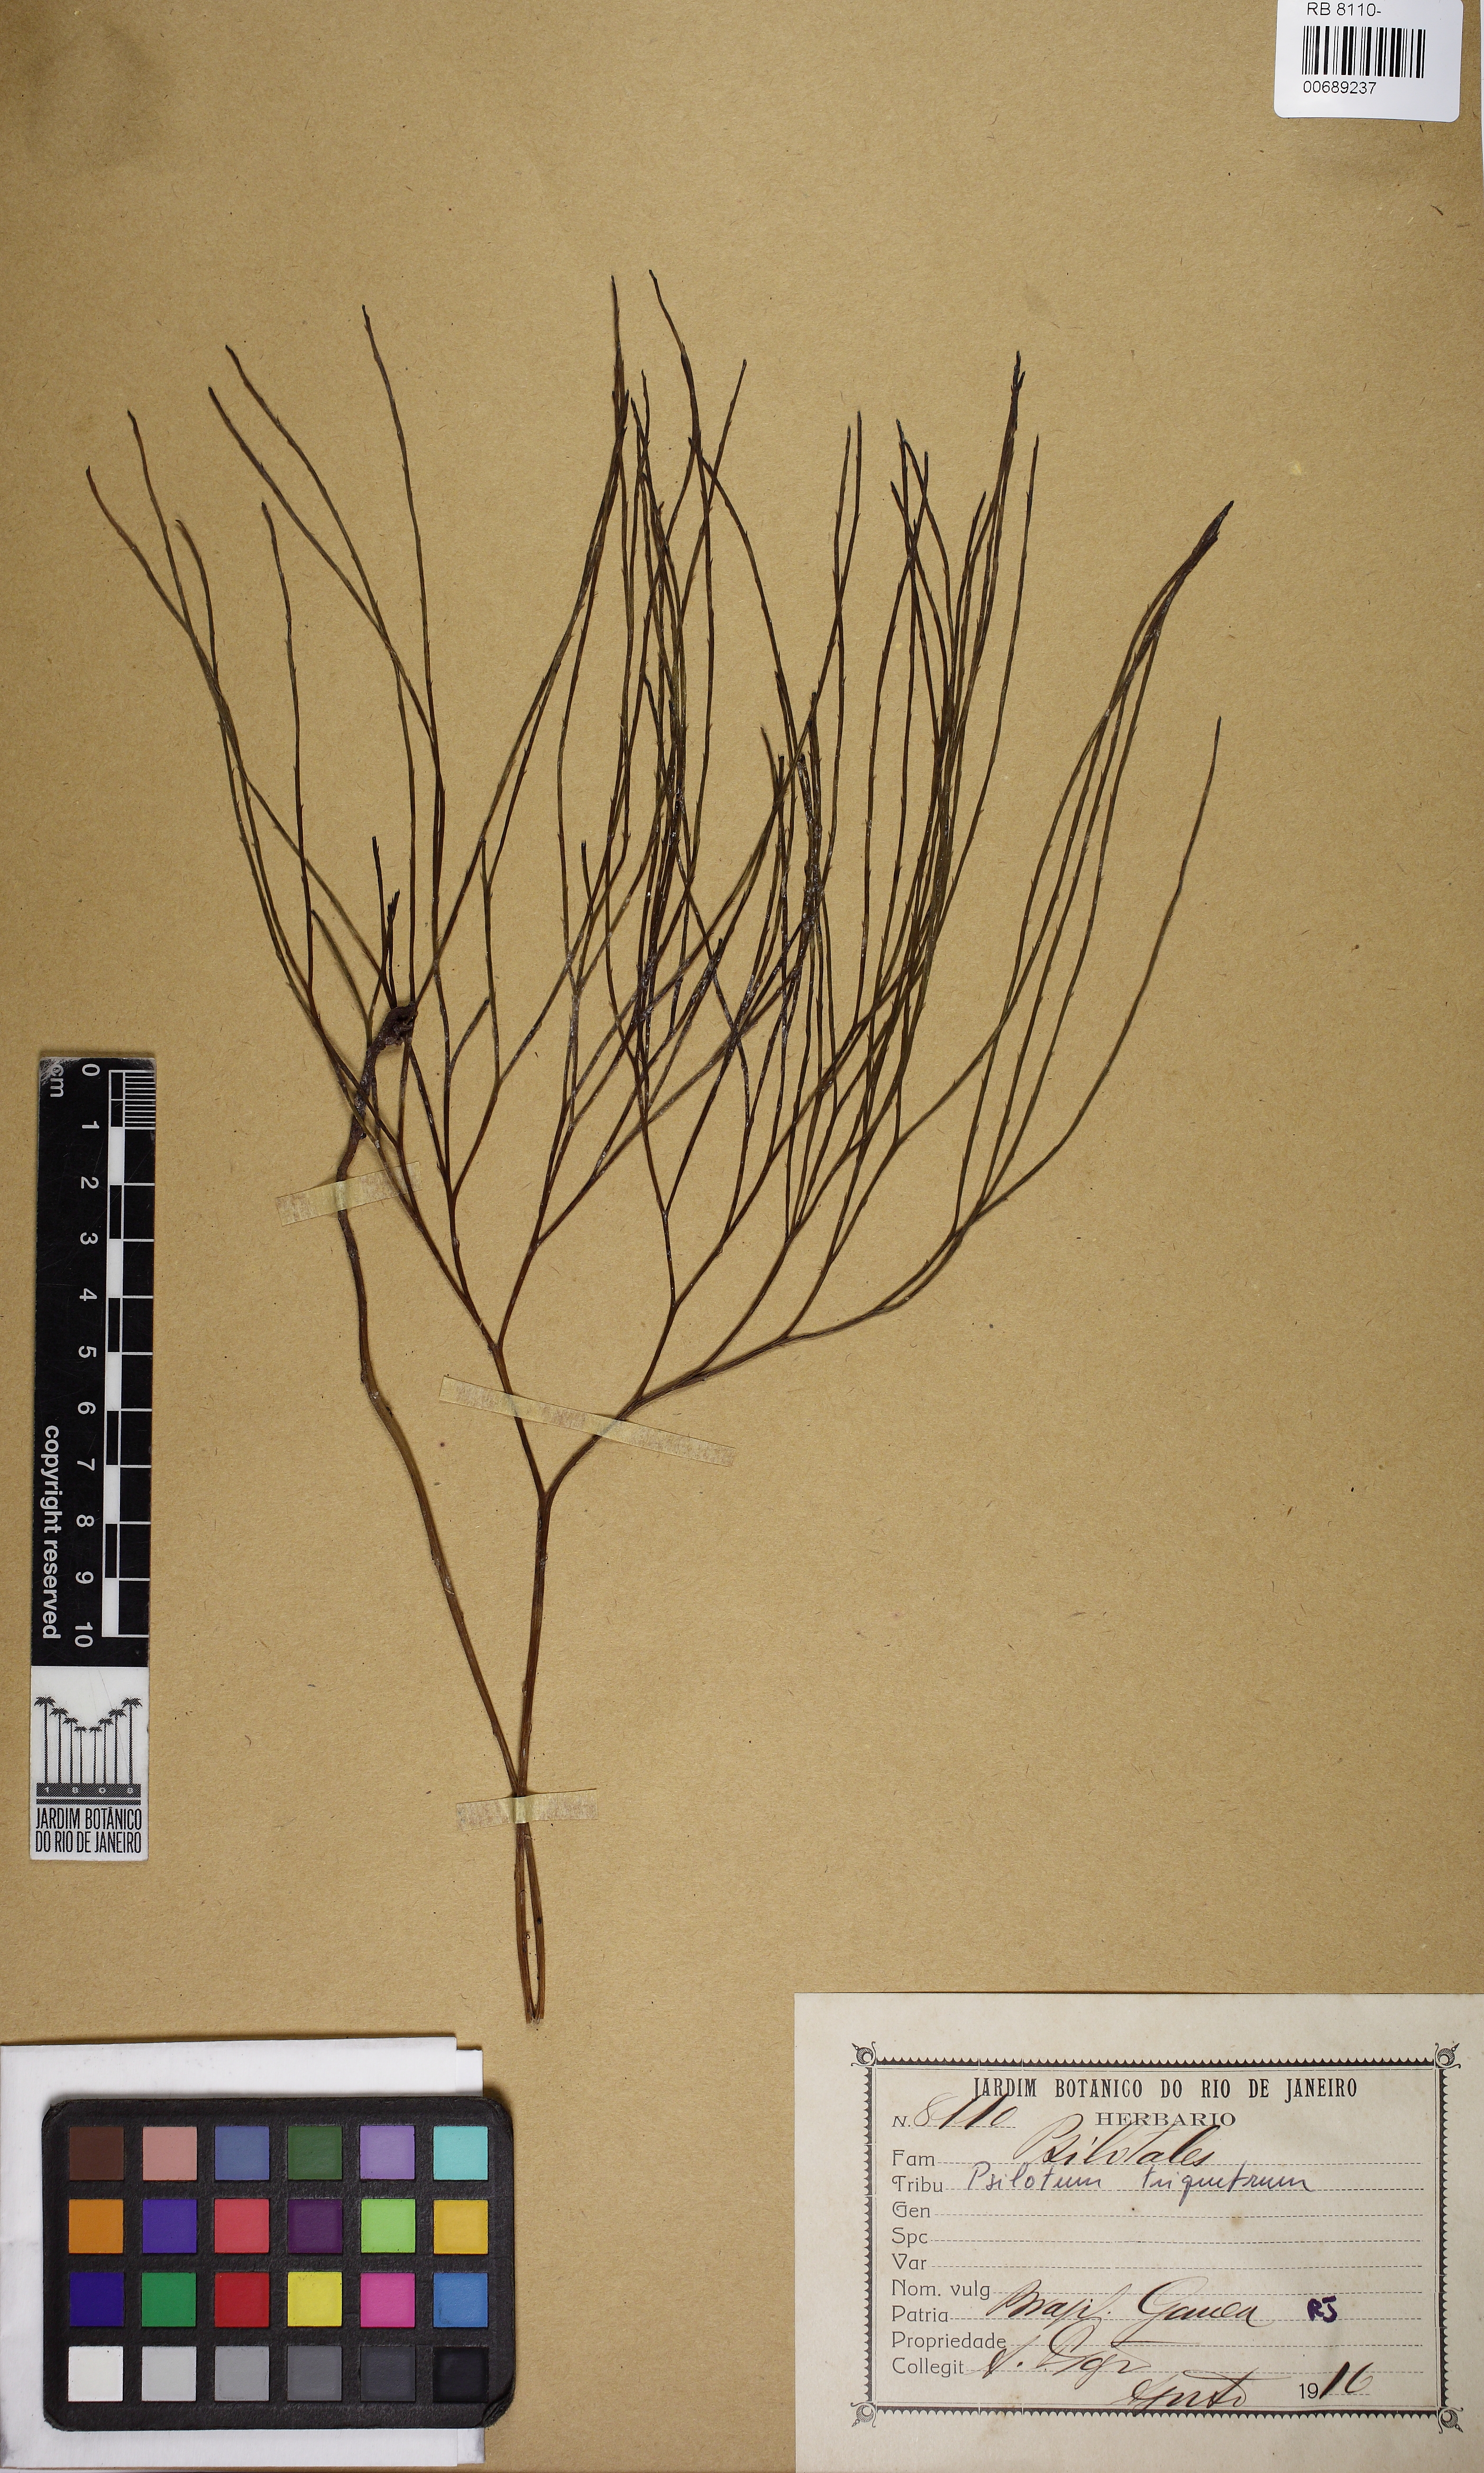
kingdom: Plantae
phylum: Tracheophyta
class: Polypodiopsida
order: Psilotales
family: Psilotaceae
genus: Psilotum
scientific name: Psilotum nudum
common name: Skeleton fork fern
